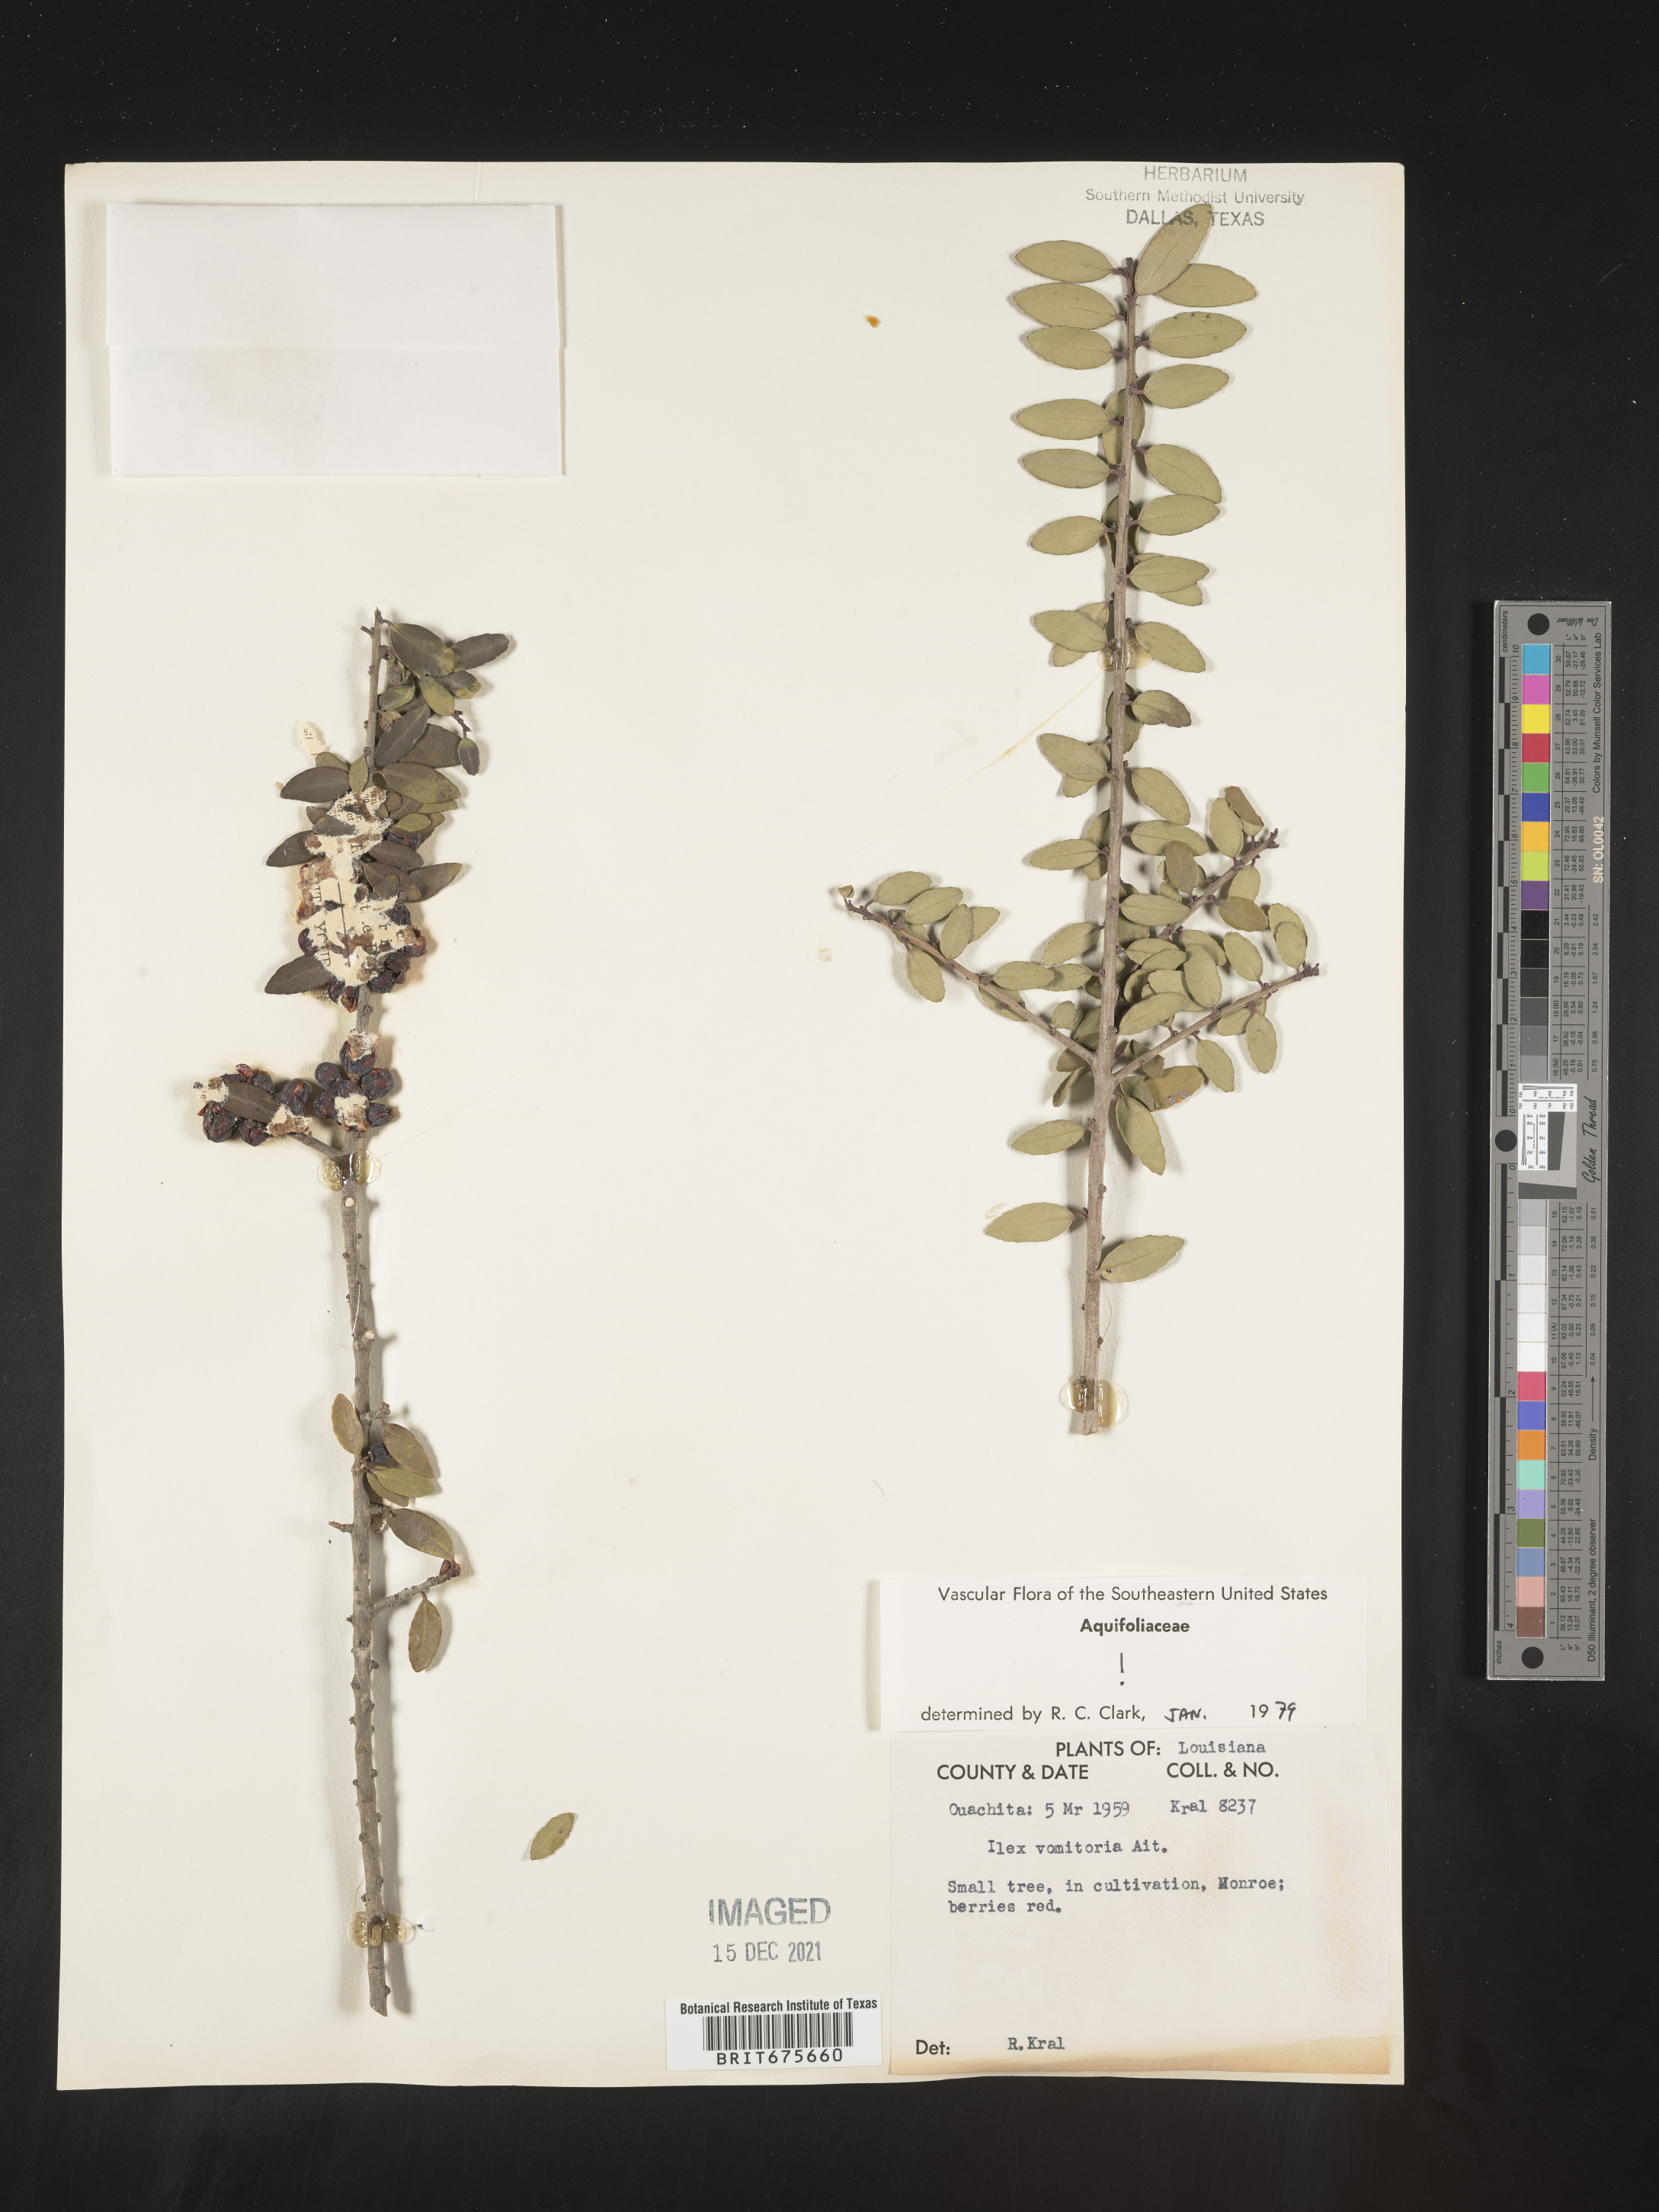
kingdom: Plantae
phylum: Tracheophyta
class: Magnoliopsida
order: Aquifoliales
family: Aquifoliaceae
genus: Ilex
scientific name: Ilex vomitoria
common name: Yaupon holly
